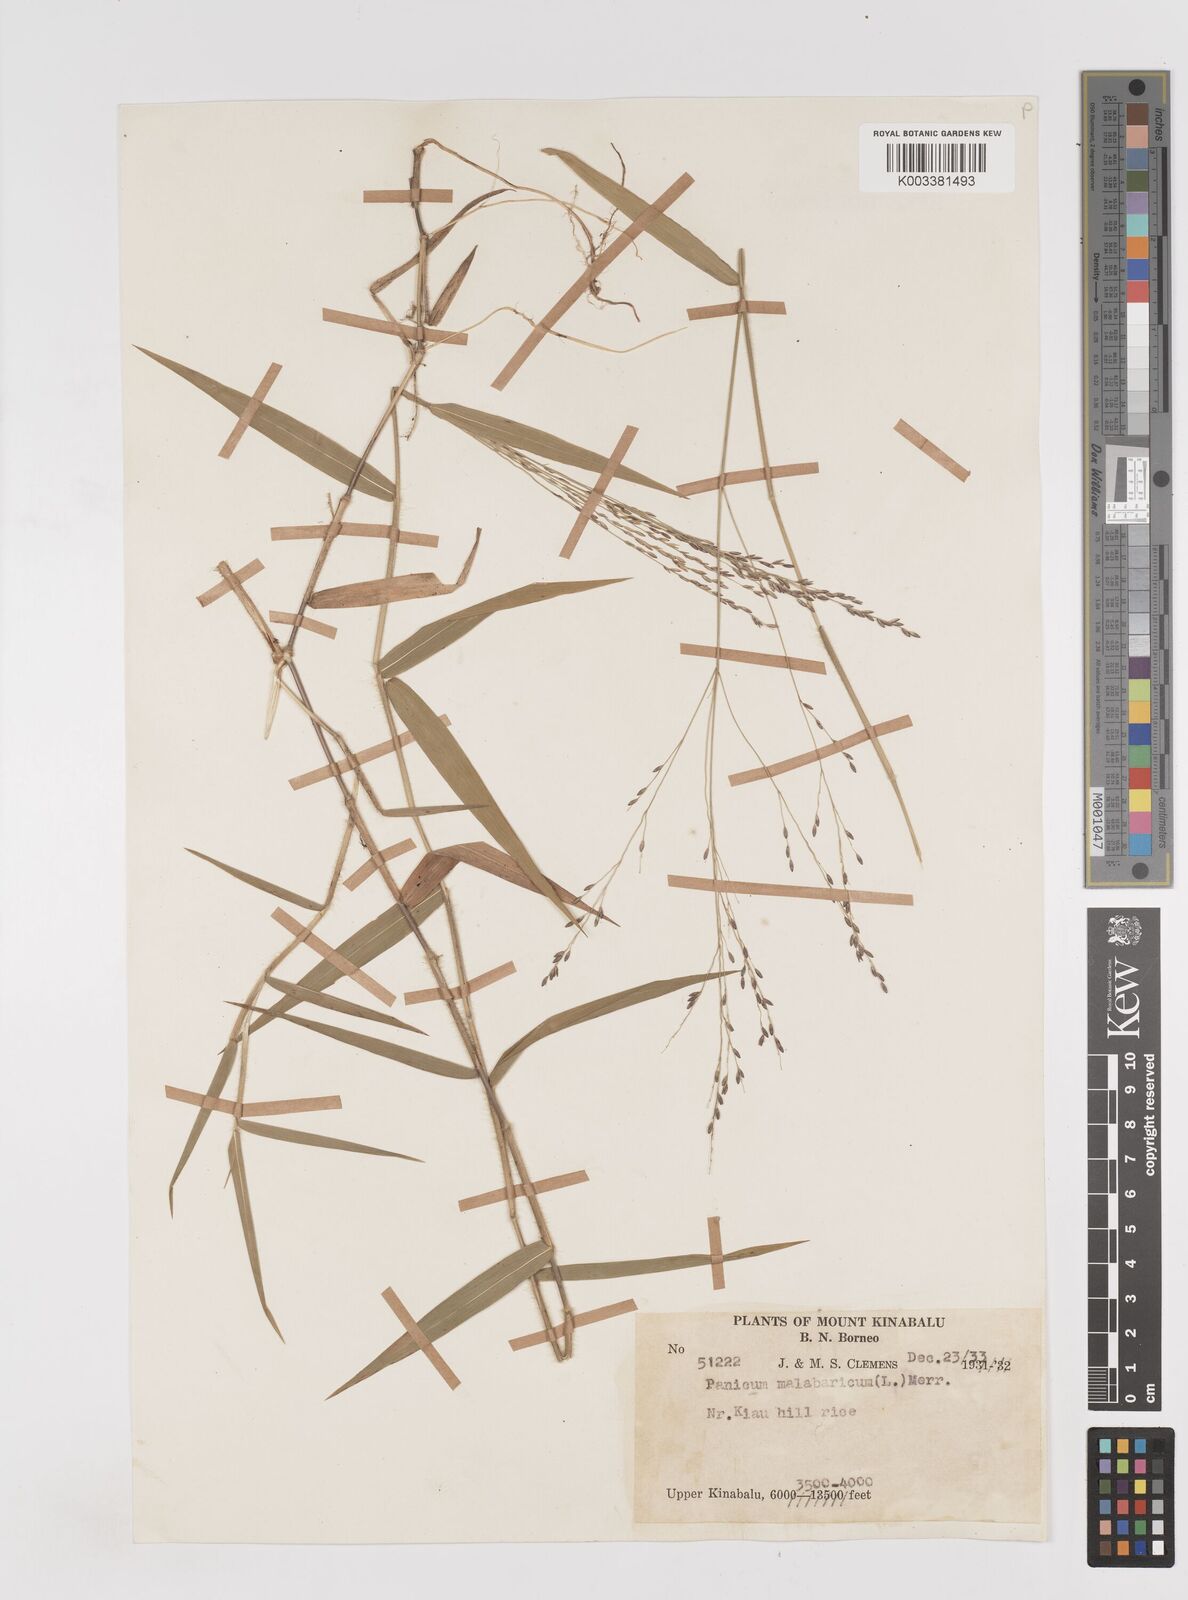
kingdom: Plantae
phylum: Tracheophyta
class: Liliopsida
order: Poales
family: Poaceae
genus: Ottochloa
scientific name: Ottochloa nodosa
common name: Slender-panic grass
